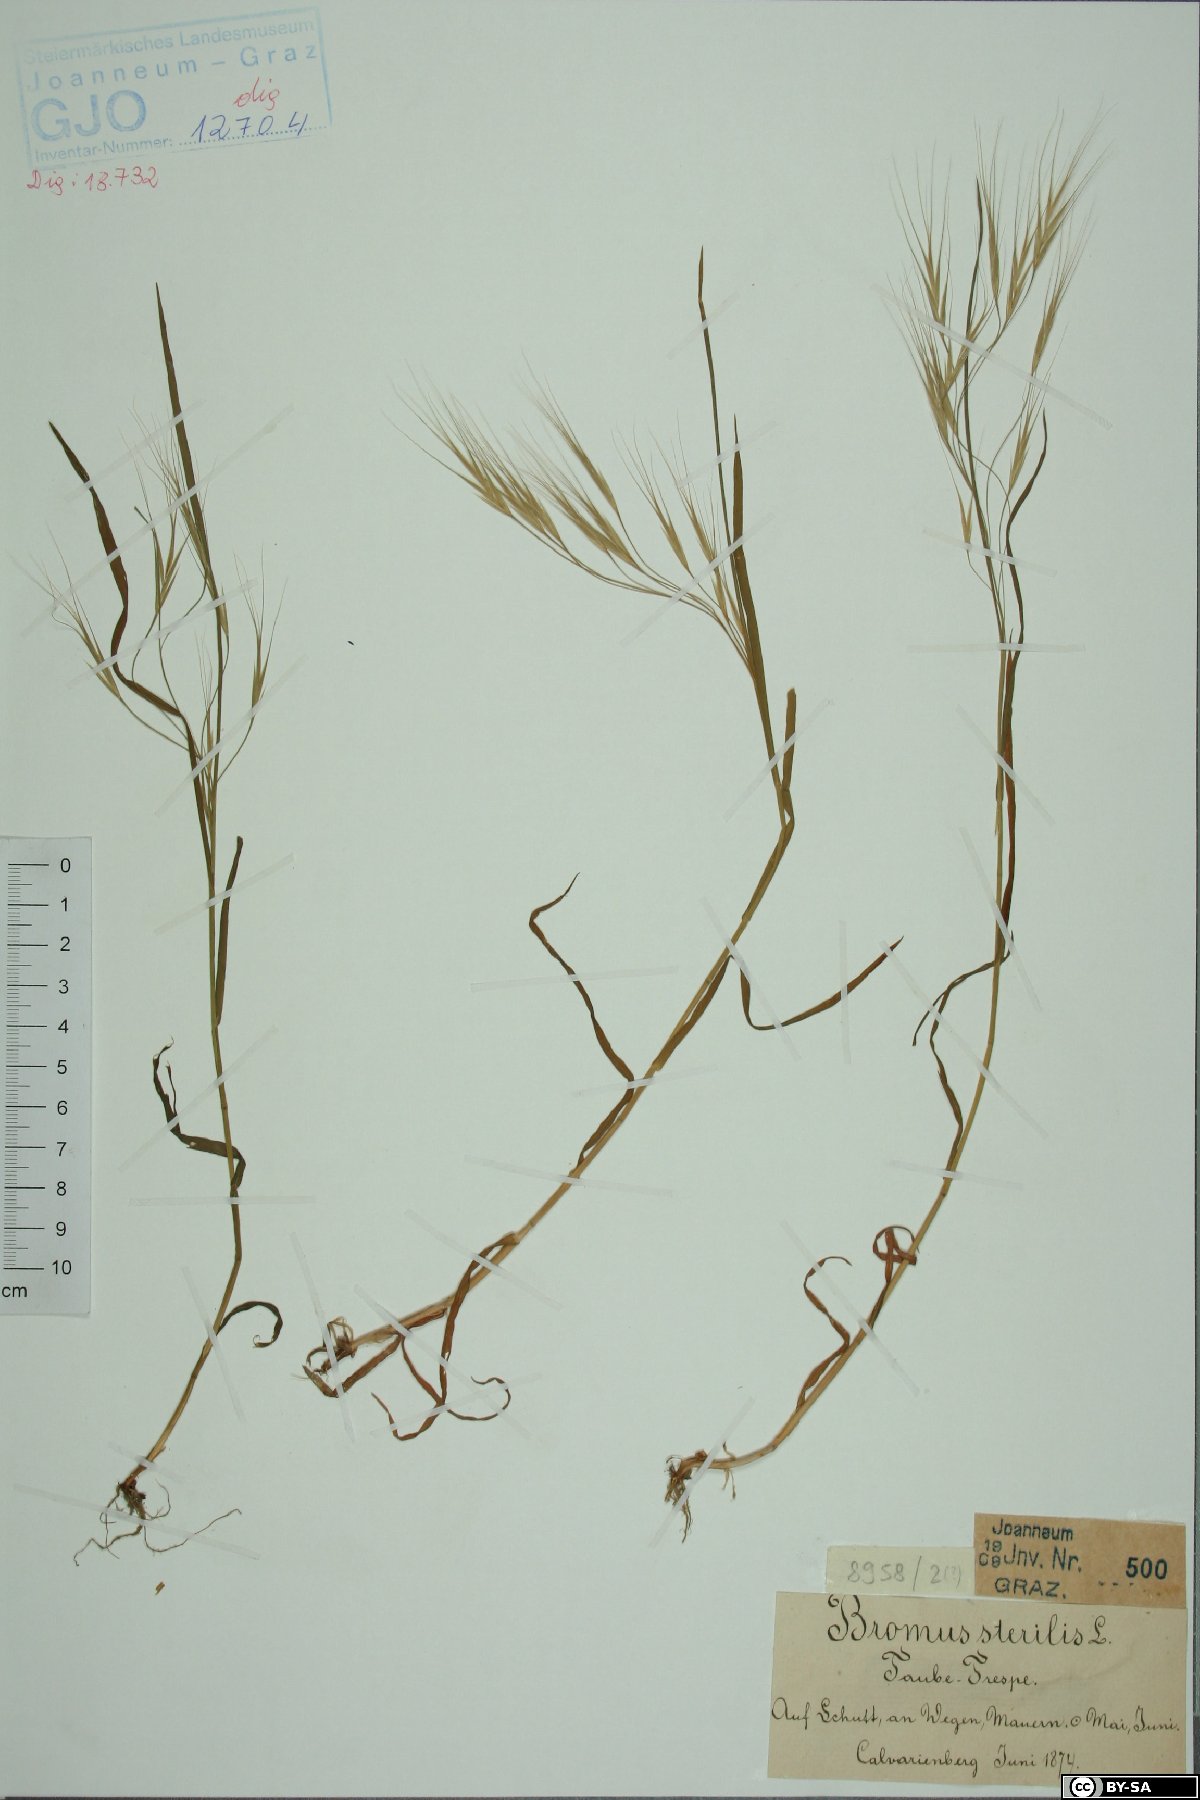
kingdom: Plantae
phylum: Tracheophyta
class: Liliopsida
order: Poales
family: Poaceae
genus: Bromus
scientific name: Bromus sterilis
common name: Poverty brome
